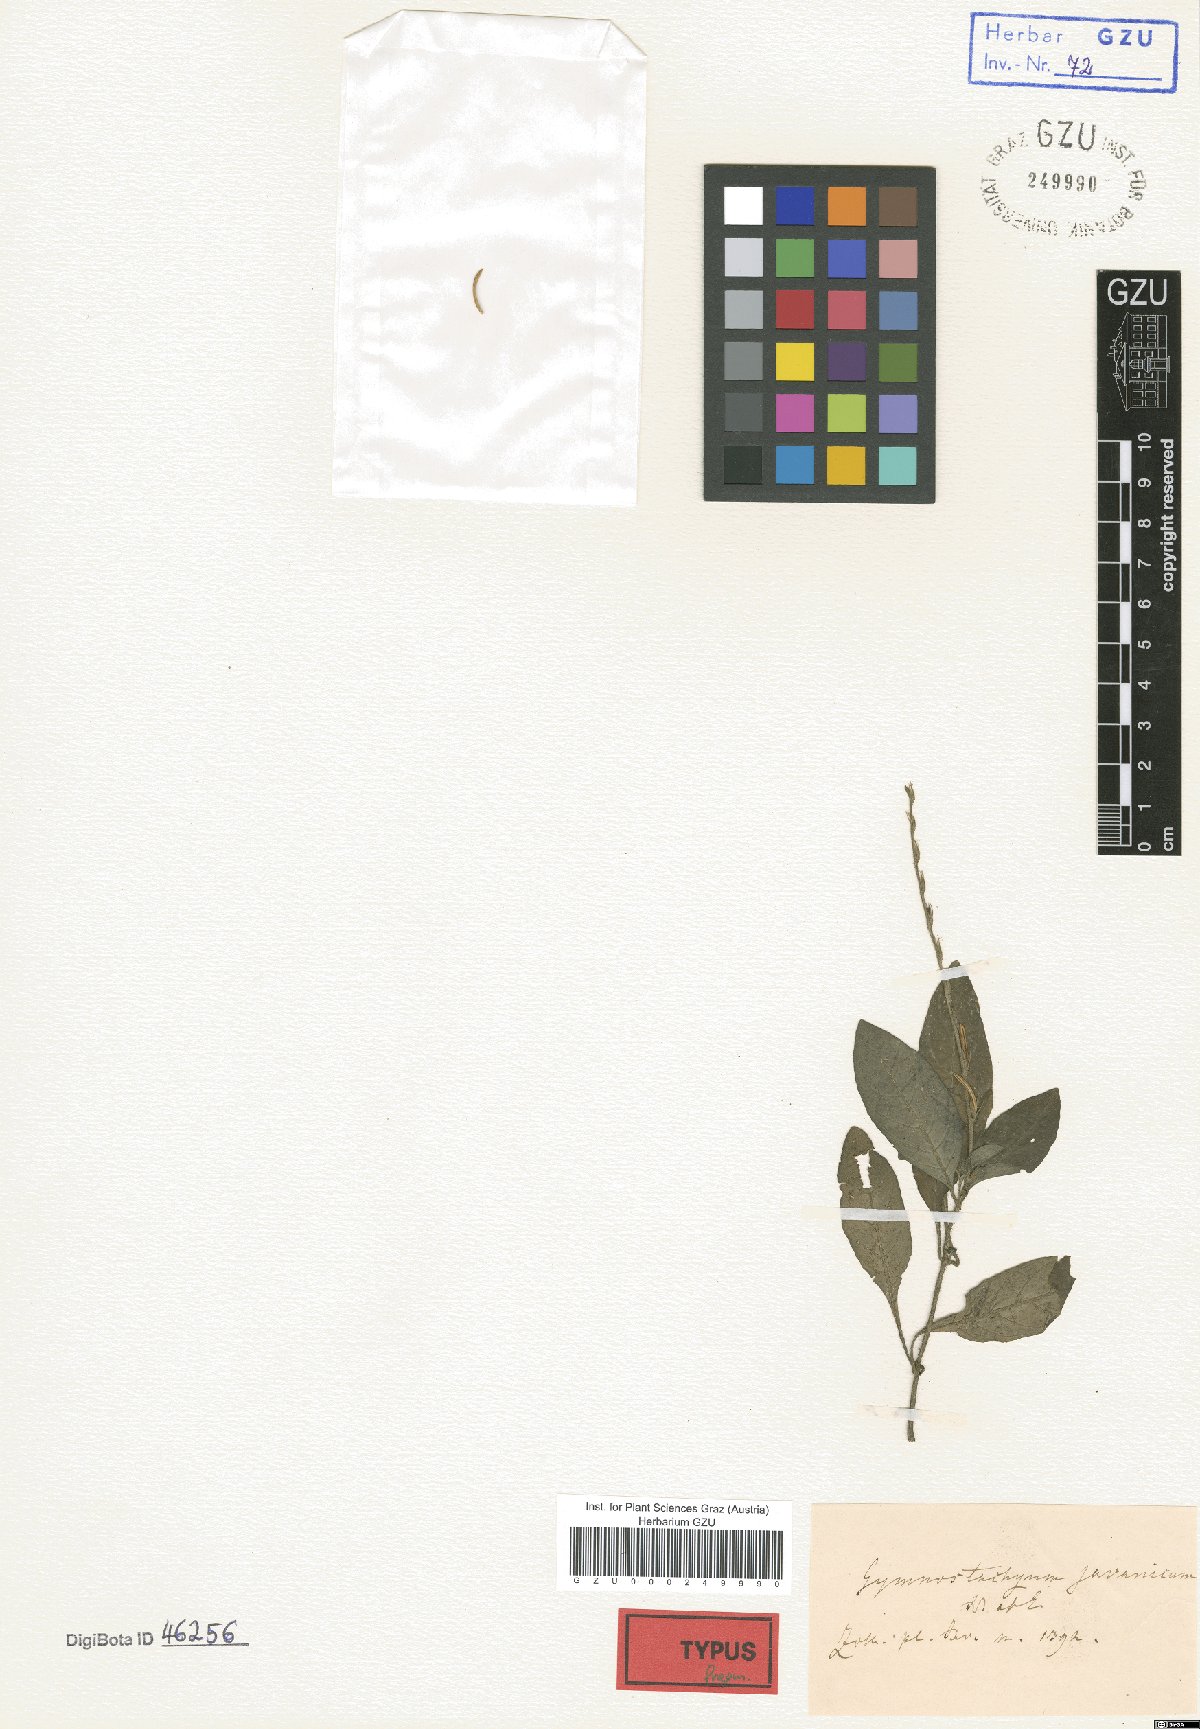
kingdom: Plantae
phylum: Tracheophyta
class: Magnoliopsida
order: Lamiales
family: Acanthaceae
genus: Gymnostachyum
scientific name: Gymnostachyum javanicum
